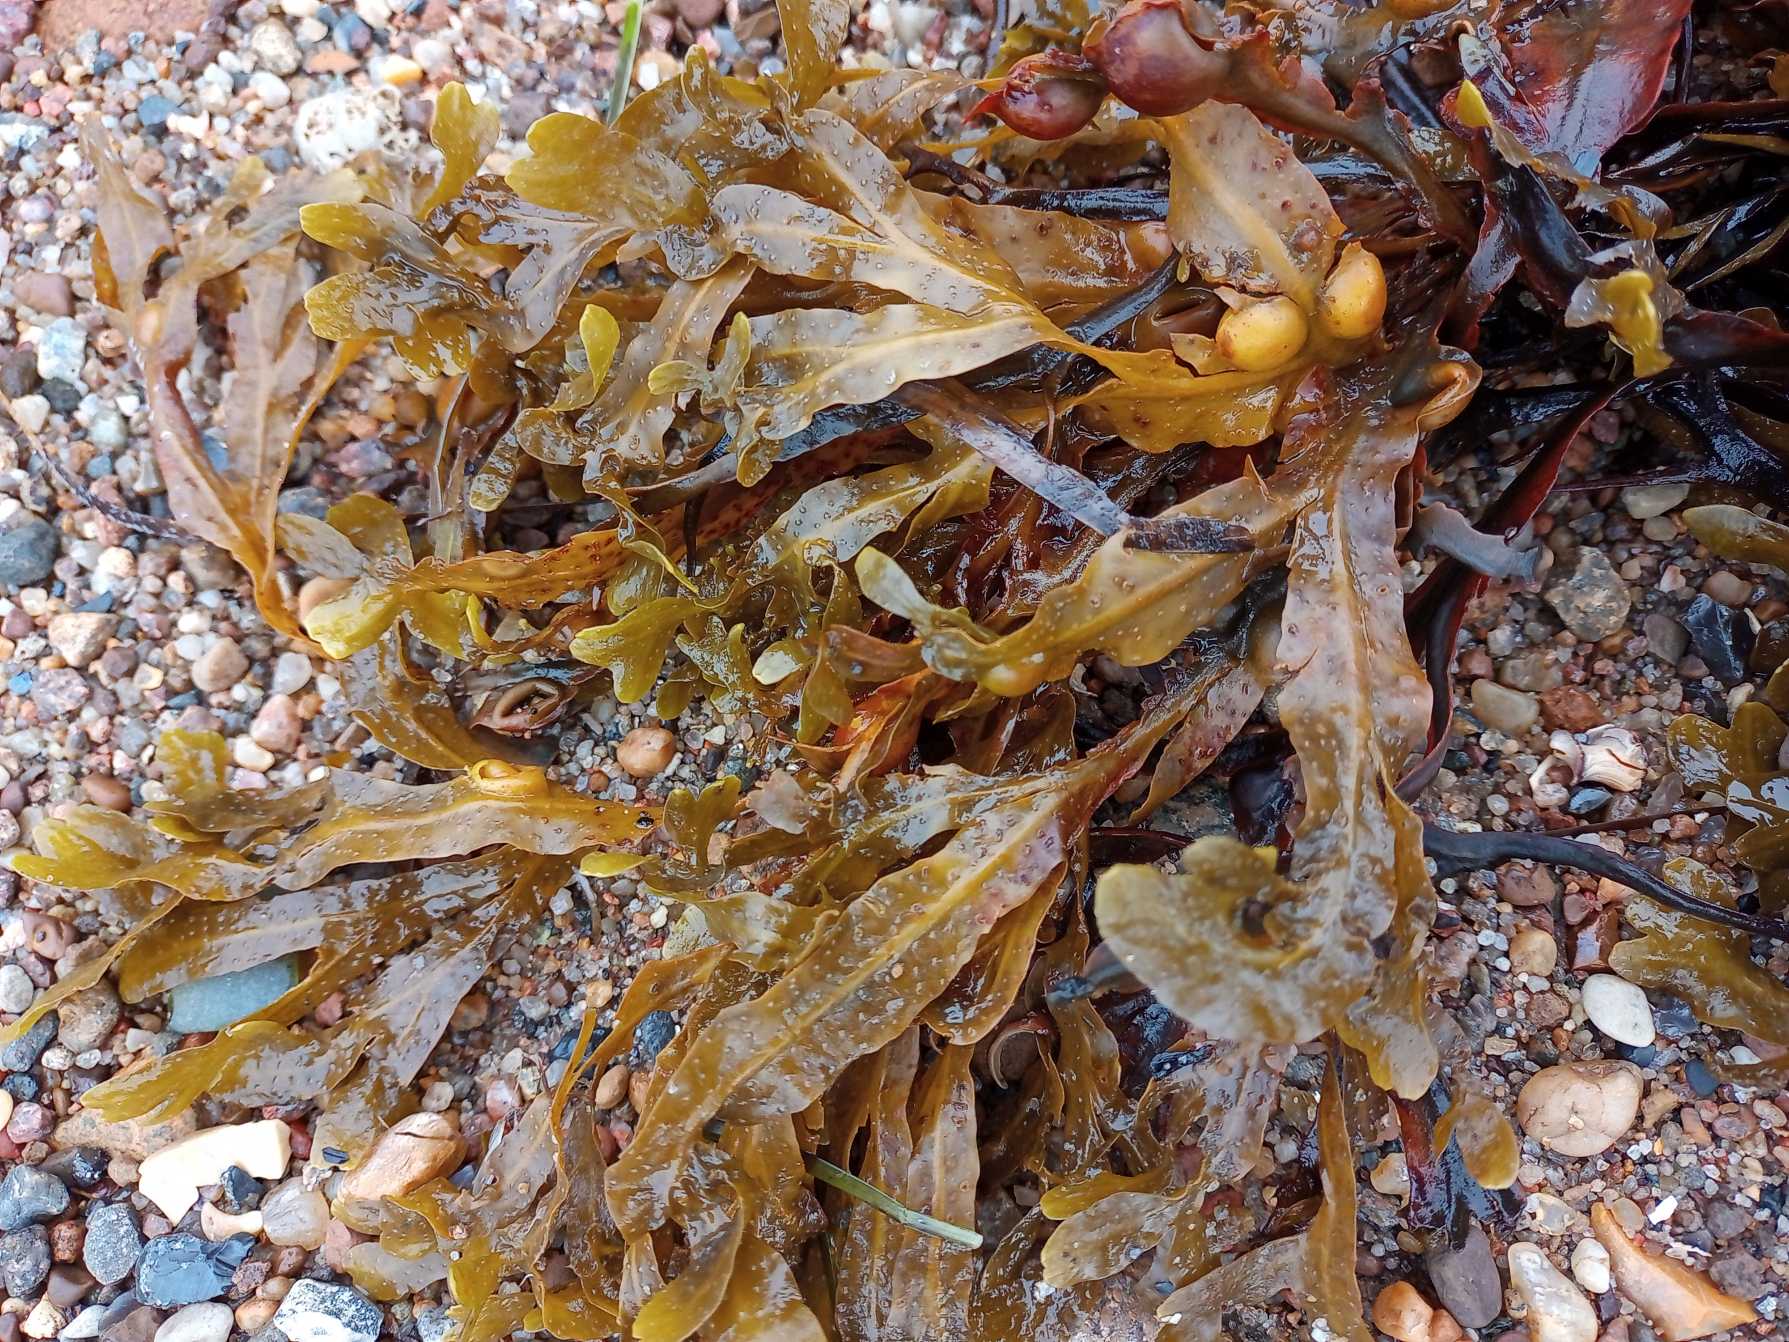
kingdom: Chromista
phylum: Ochrophyta
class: Phaeophyceae
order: Fucales
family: Fucaceae
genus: Ascophyllum
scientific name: Ascophyllum nodosum
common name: Buletang
